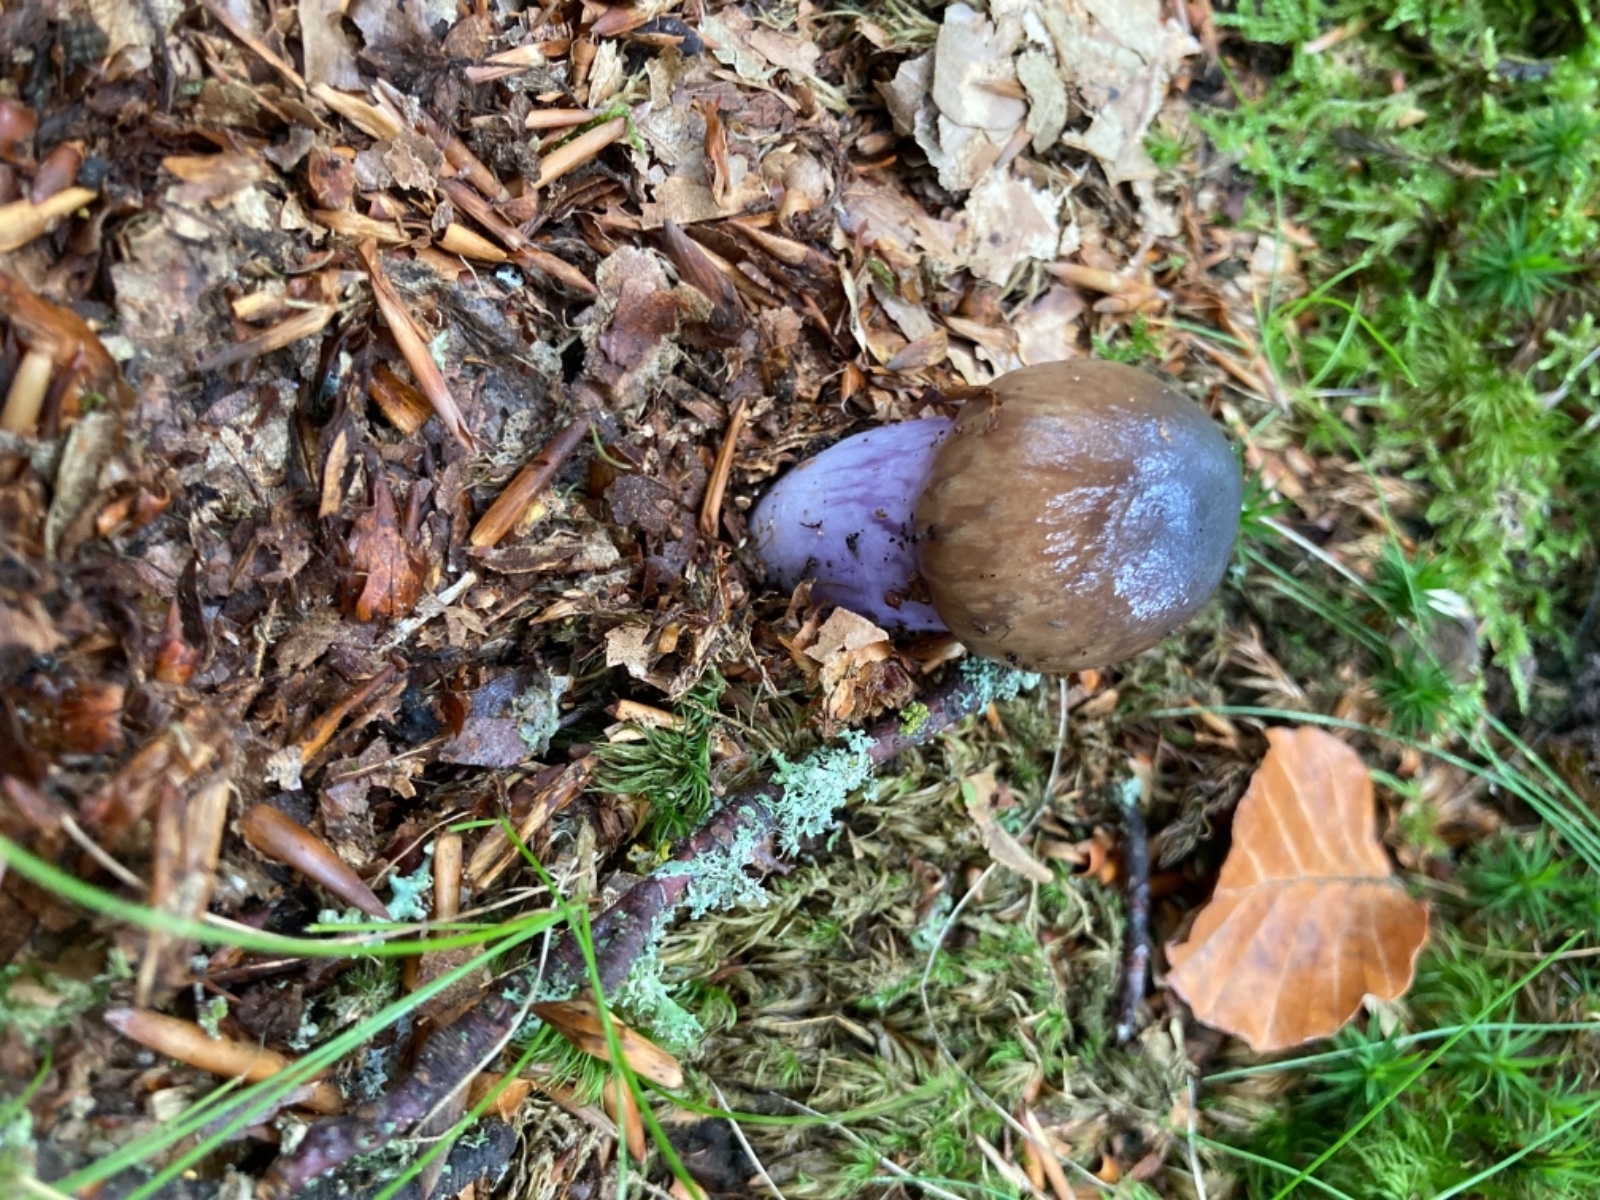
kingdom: Fungi
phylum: Basidiomycota
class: Agaricomycetes
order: Agaricales
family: Cortinariaceae
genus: Cortinarius
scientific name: Cortinarius
